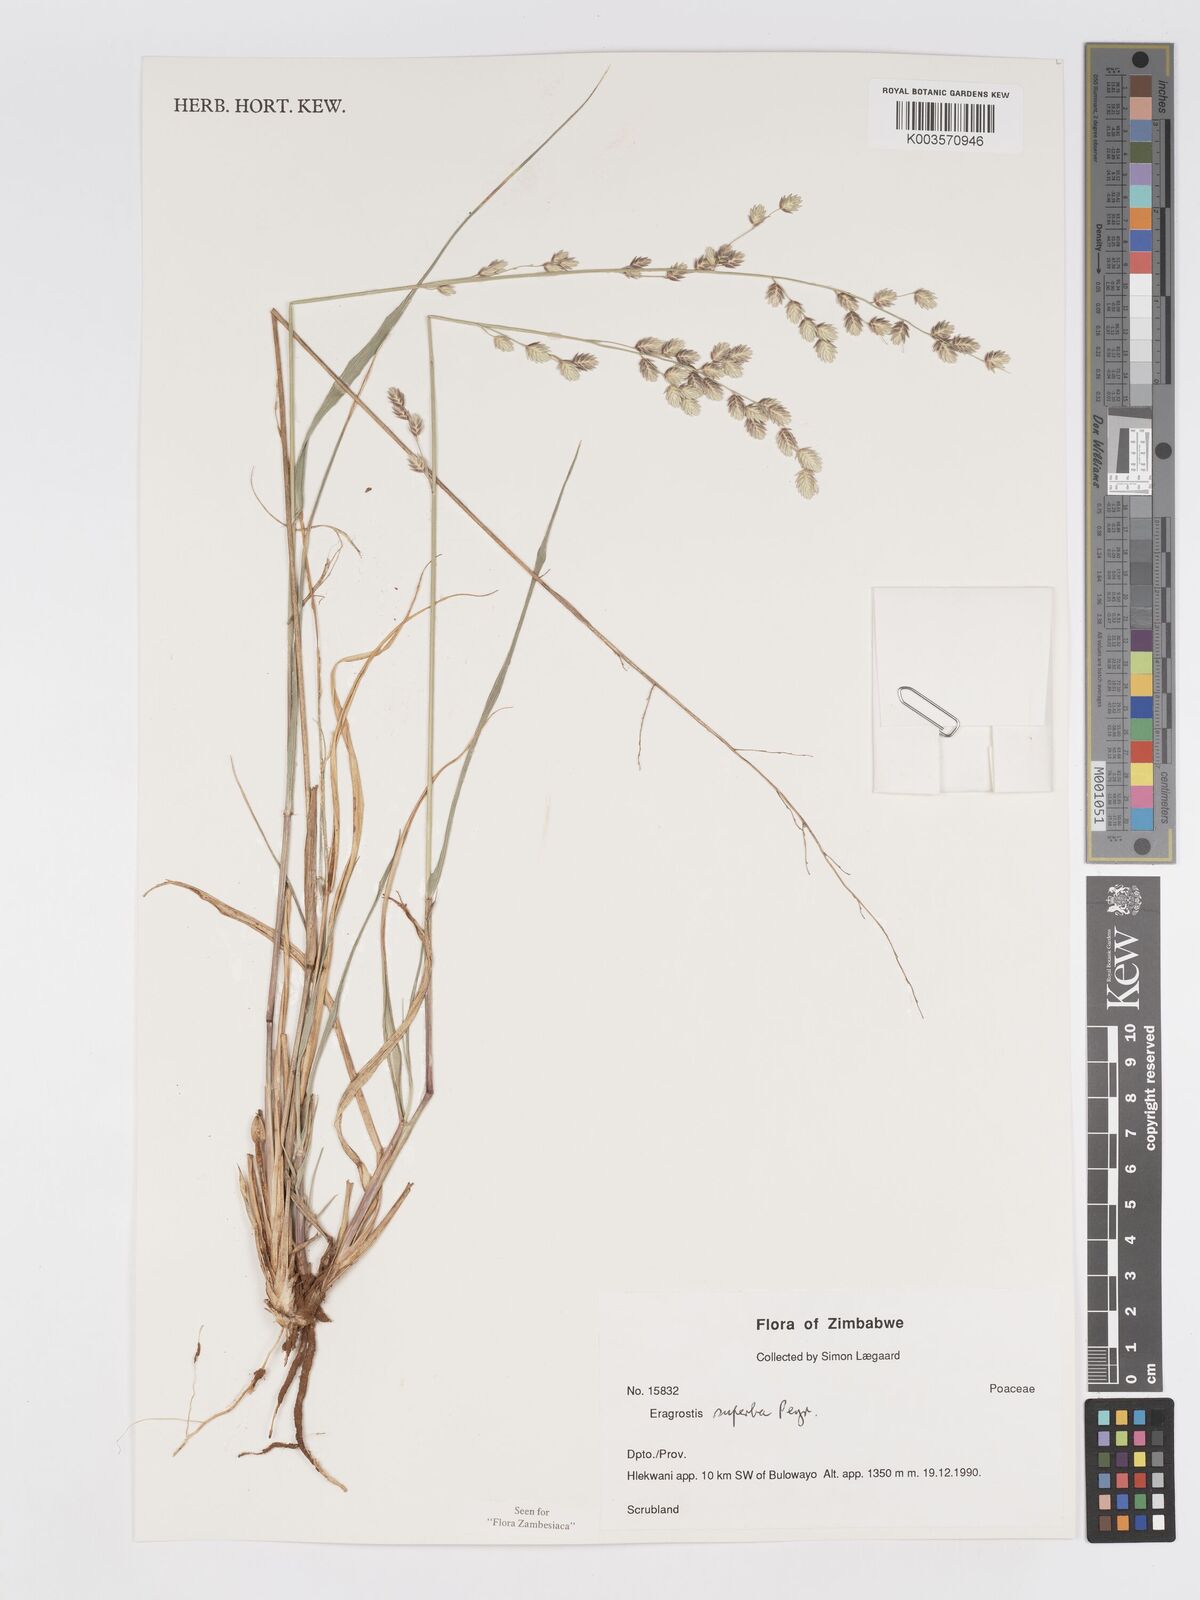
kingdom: Plantae
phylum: Tracheophyta
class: Liliopsida
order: Poales
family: Poaceae
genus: Eragrostis
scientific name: Eragrostis superba
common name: Wilman lovegrass
